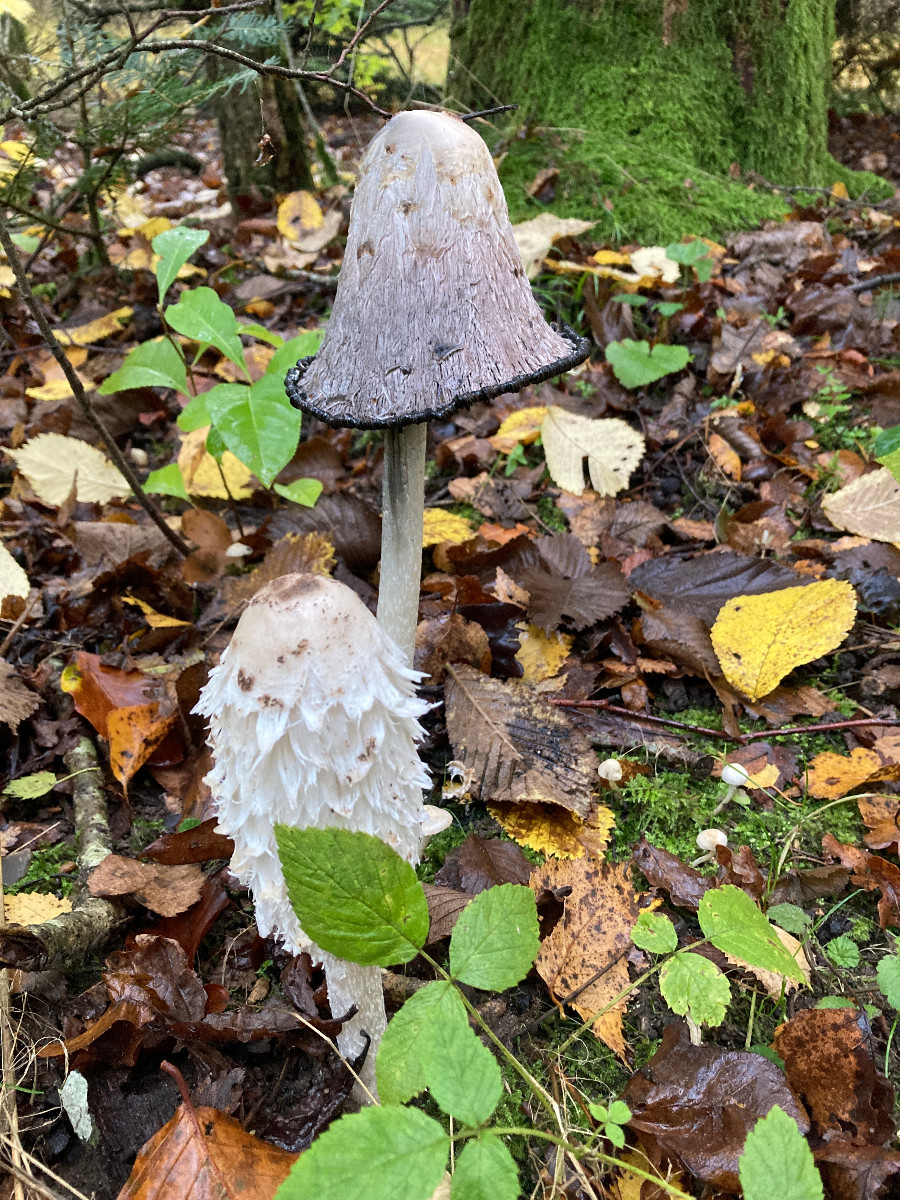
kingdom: Fungi
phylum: Basidiomycota
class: Agaricomycetes
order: Agaricales
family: Agaricaceae
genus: Coprinus
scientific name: Coprinus comatus
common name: stor parykhat
